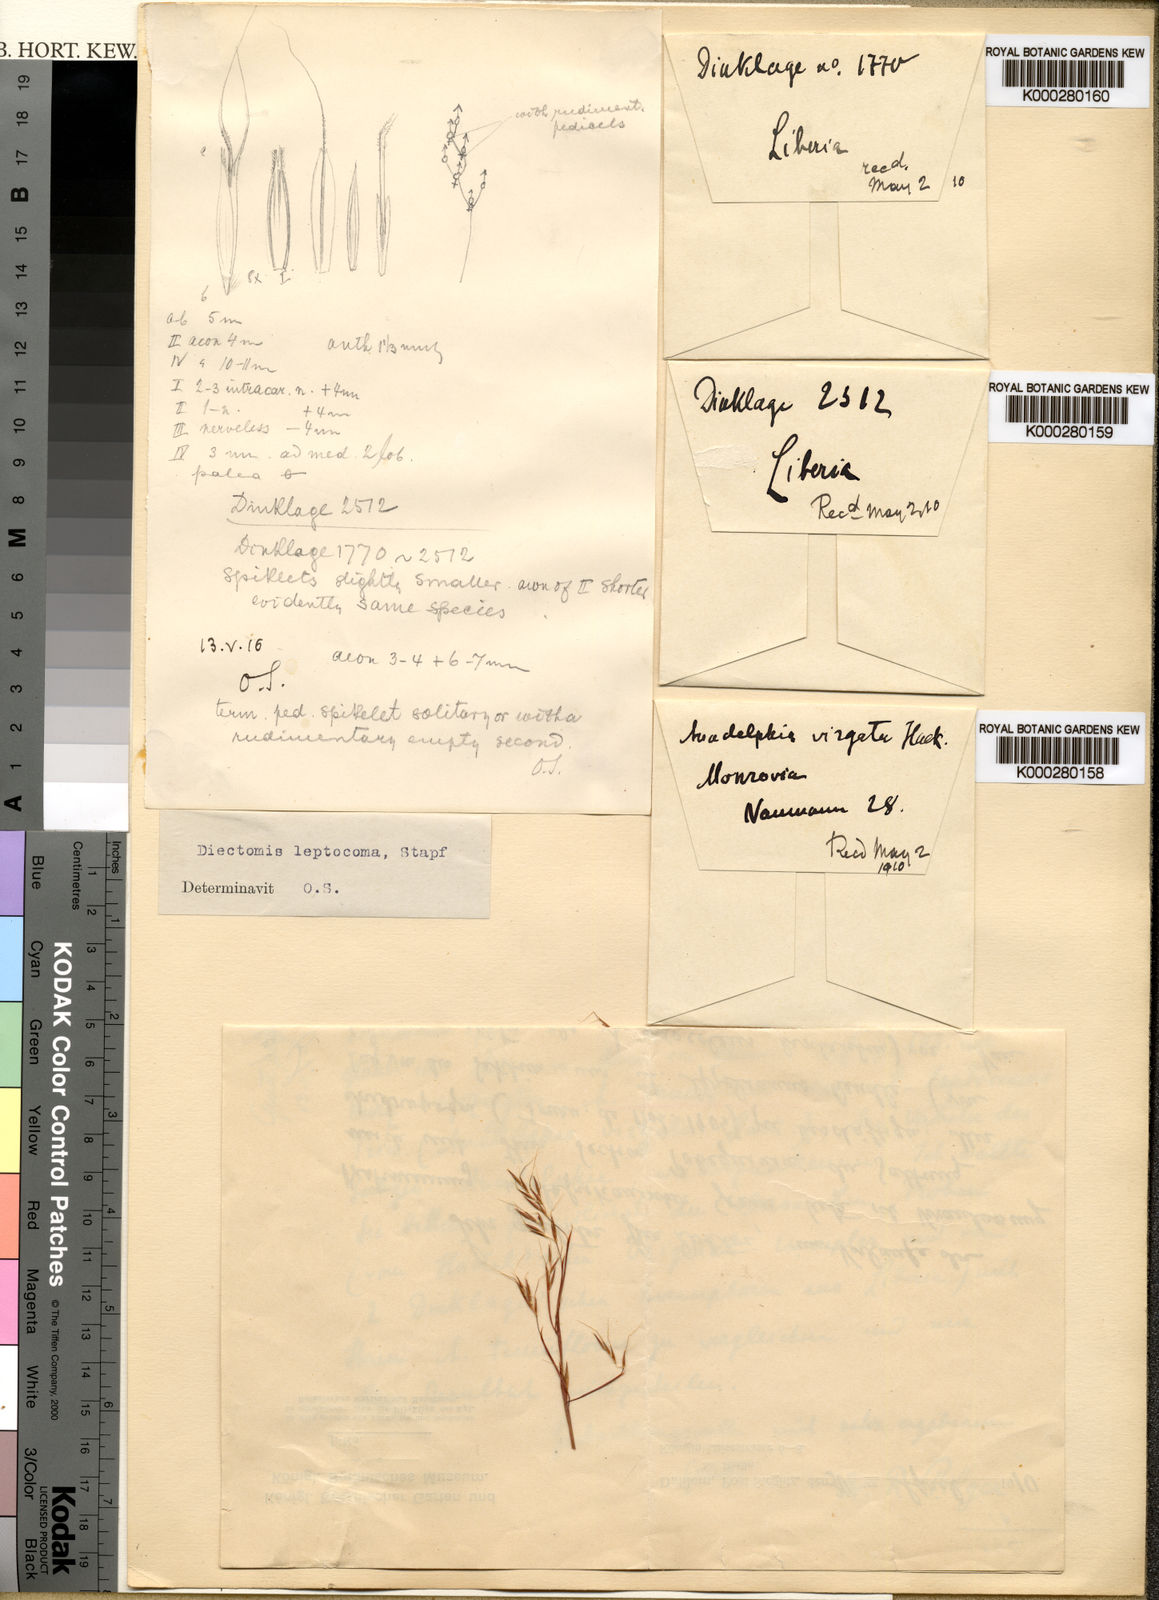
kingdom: Plantae
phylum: Tracheophyta
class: Liliopsida
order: Poales
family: Poaceae
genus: Anadelphia
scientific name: Anadelphia leptocoma
